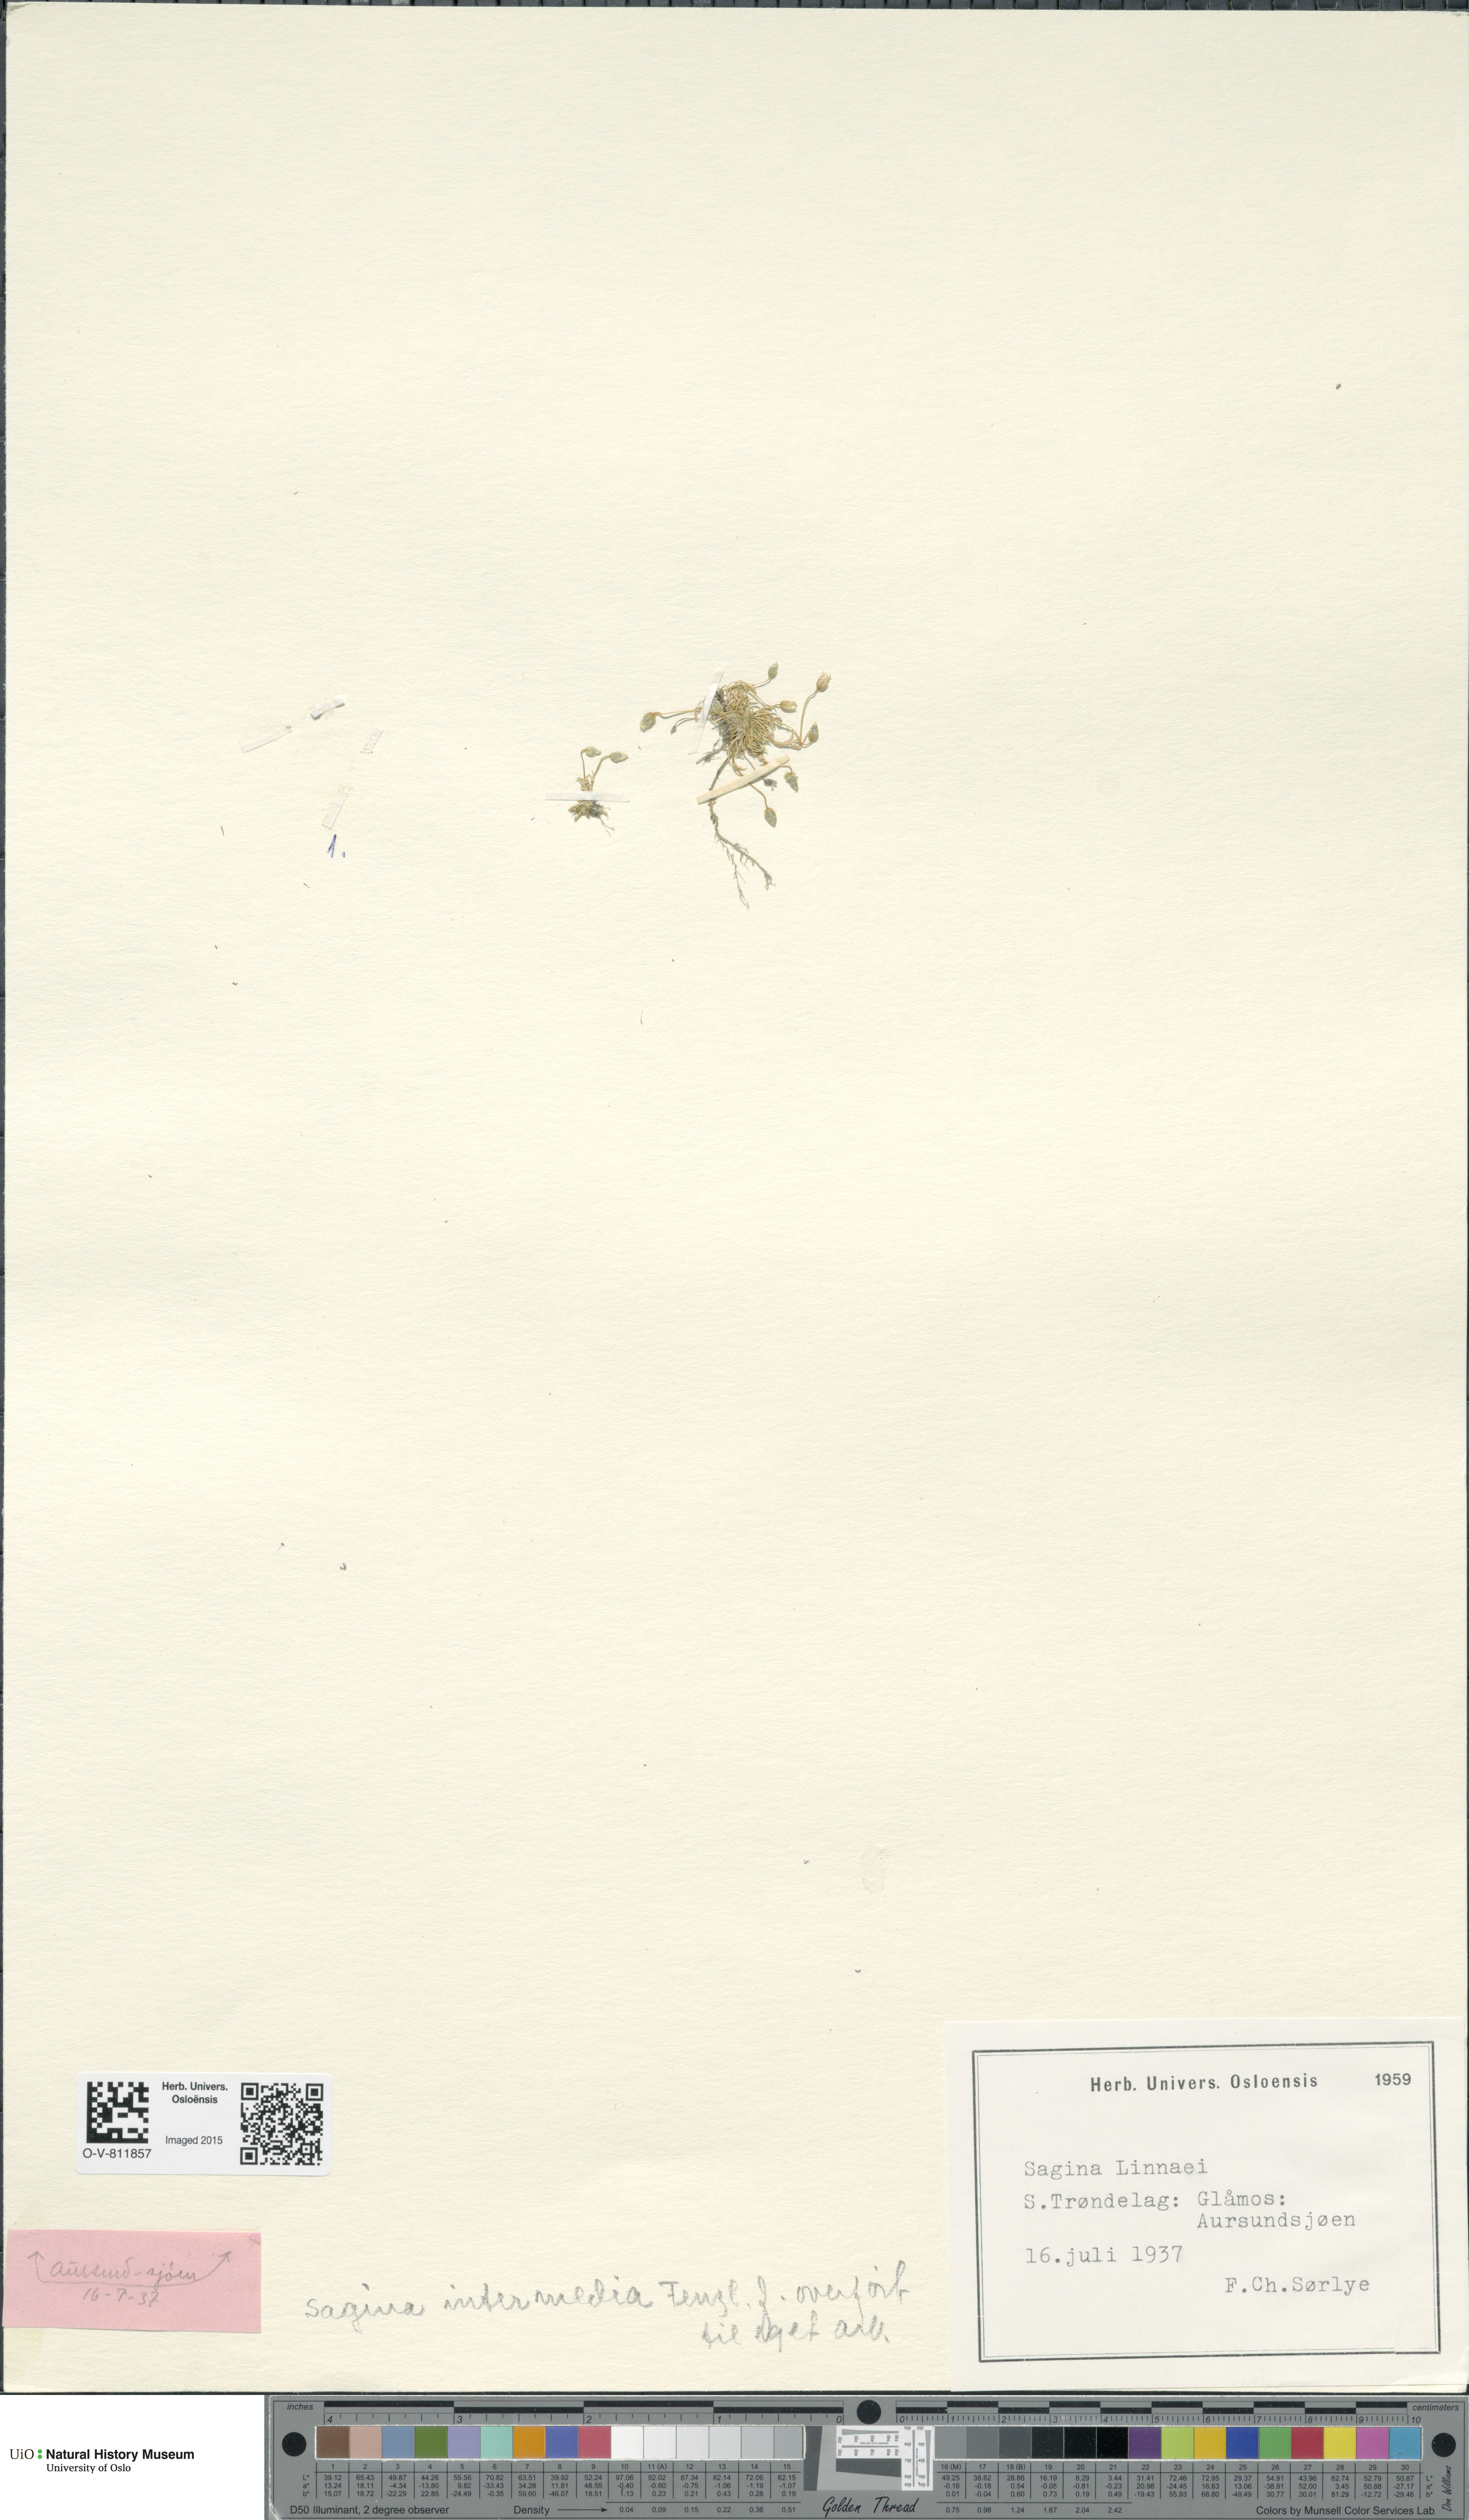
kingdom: Plantae
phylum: Tracheophyta
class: Magnoliopsida
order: Caryophyllales
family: Caryophyllaceae
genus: Sagina
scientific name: Sagina saginoides
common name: Alpine pearlwort
